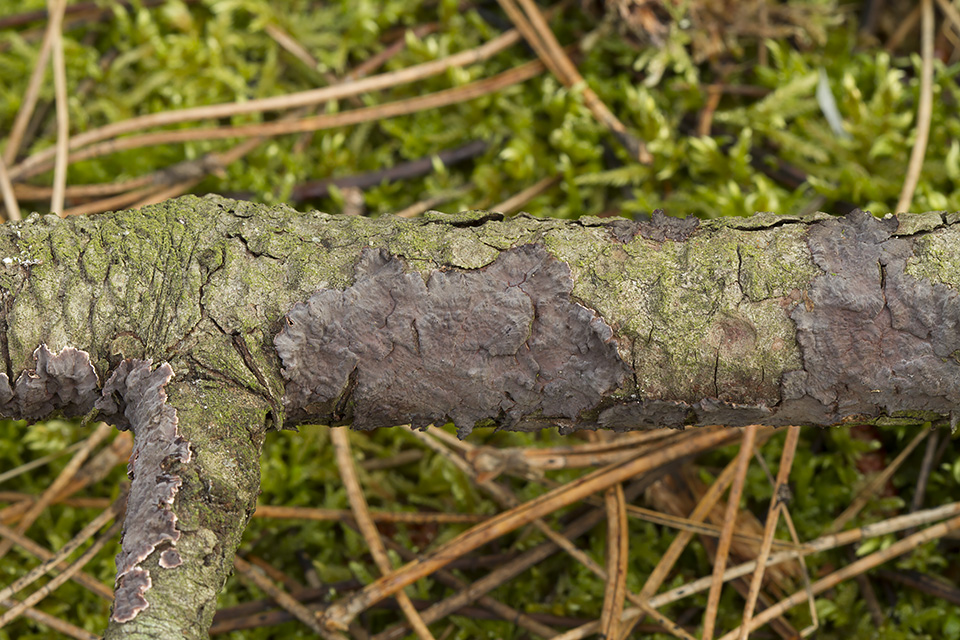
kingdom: Fungi
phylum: Basidiomycota
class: Agaricomycetes
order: Russulales
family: Peniophoraceae
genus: Peniophora
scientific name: Peniophora pini
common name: fyrre-voksskind
